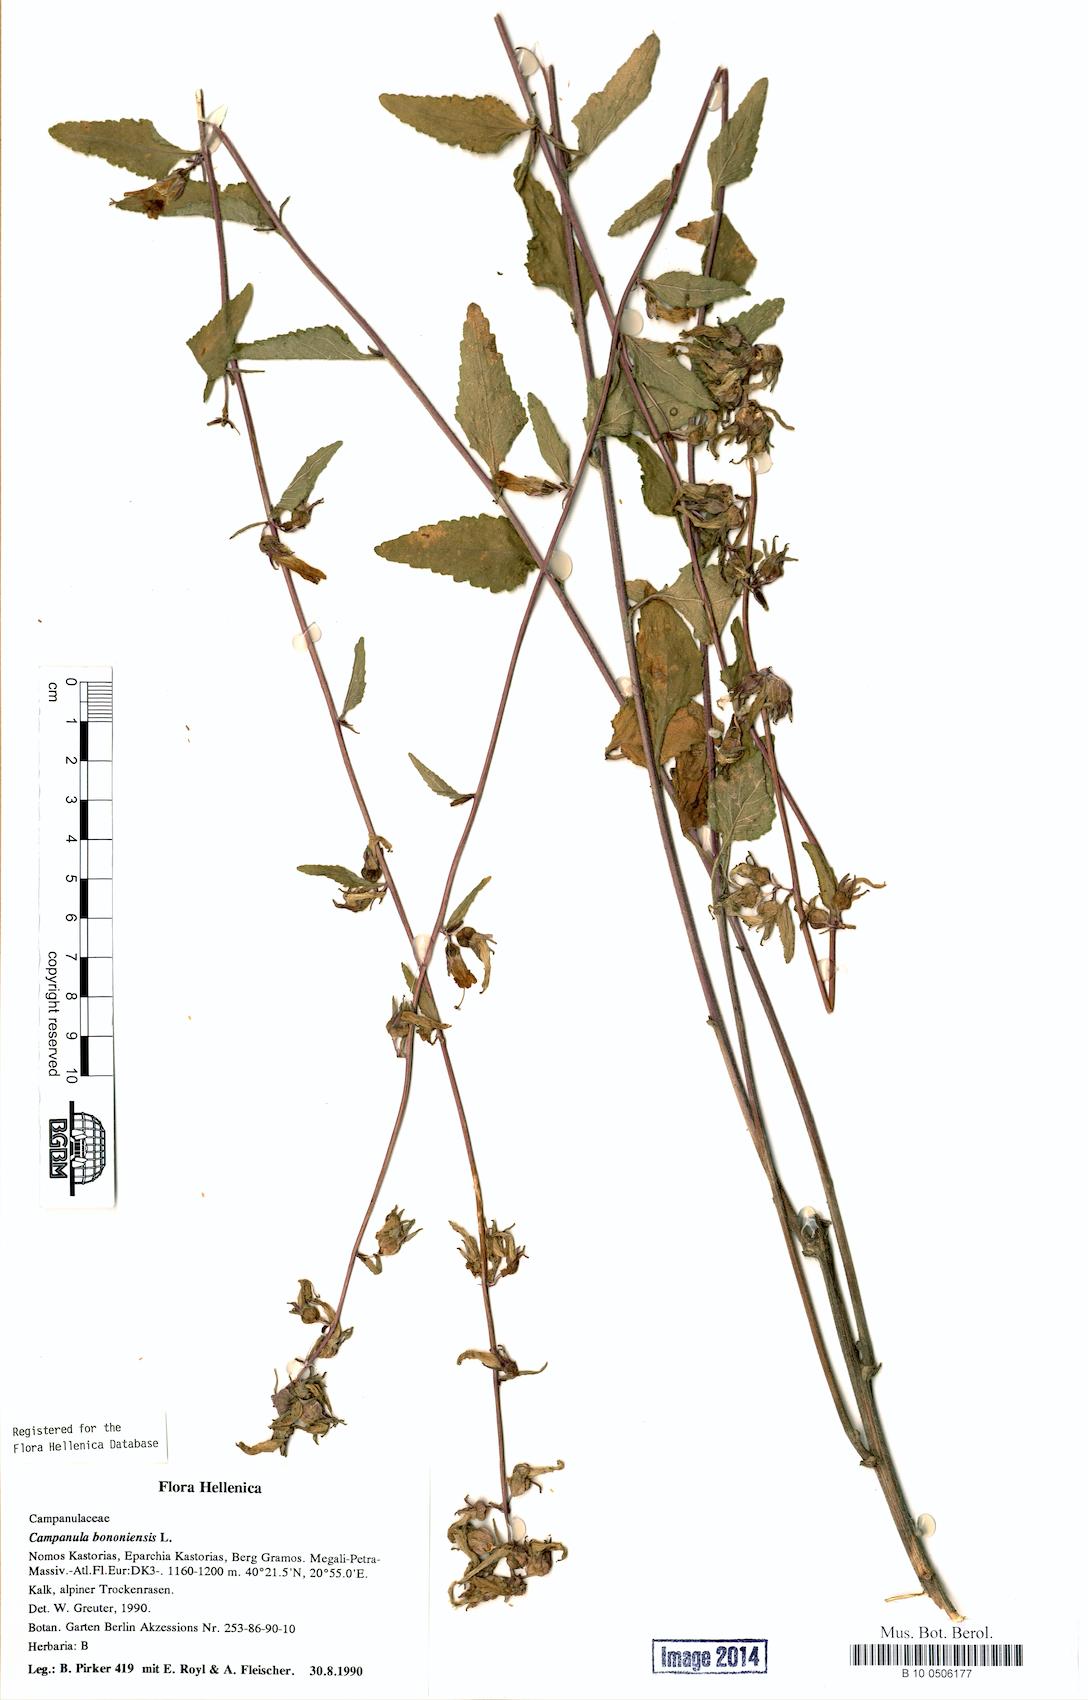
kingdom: Plantae
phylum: Tracheophyta
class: Magnoliopsida
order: Asterales
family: Campanulaceae
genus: Campanula
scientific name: Campanula bononiensis
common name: Pale bellflower
